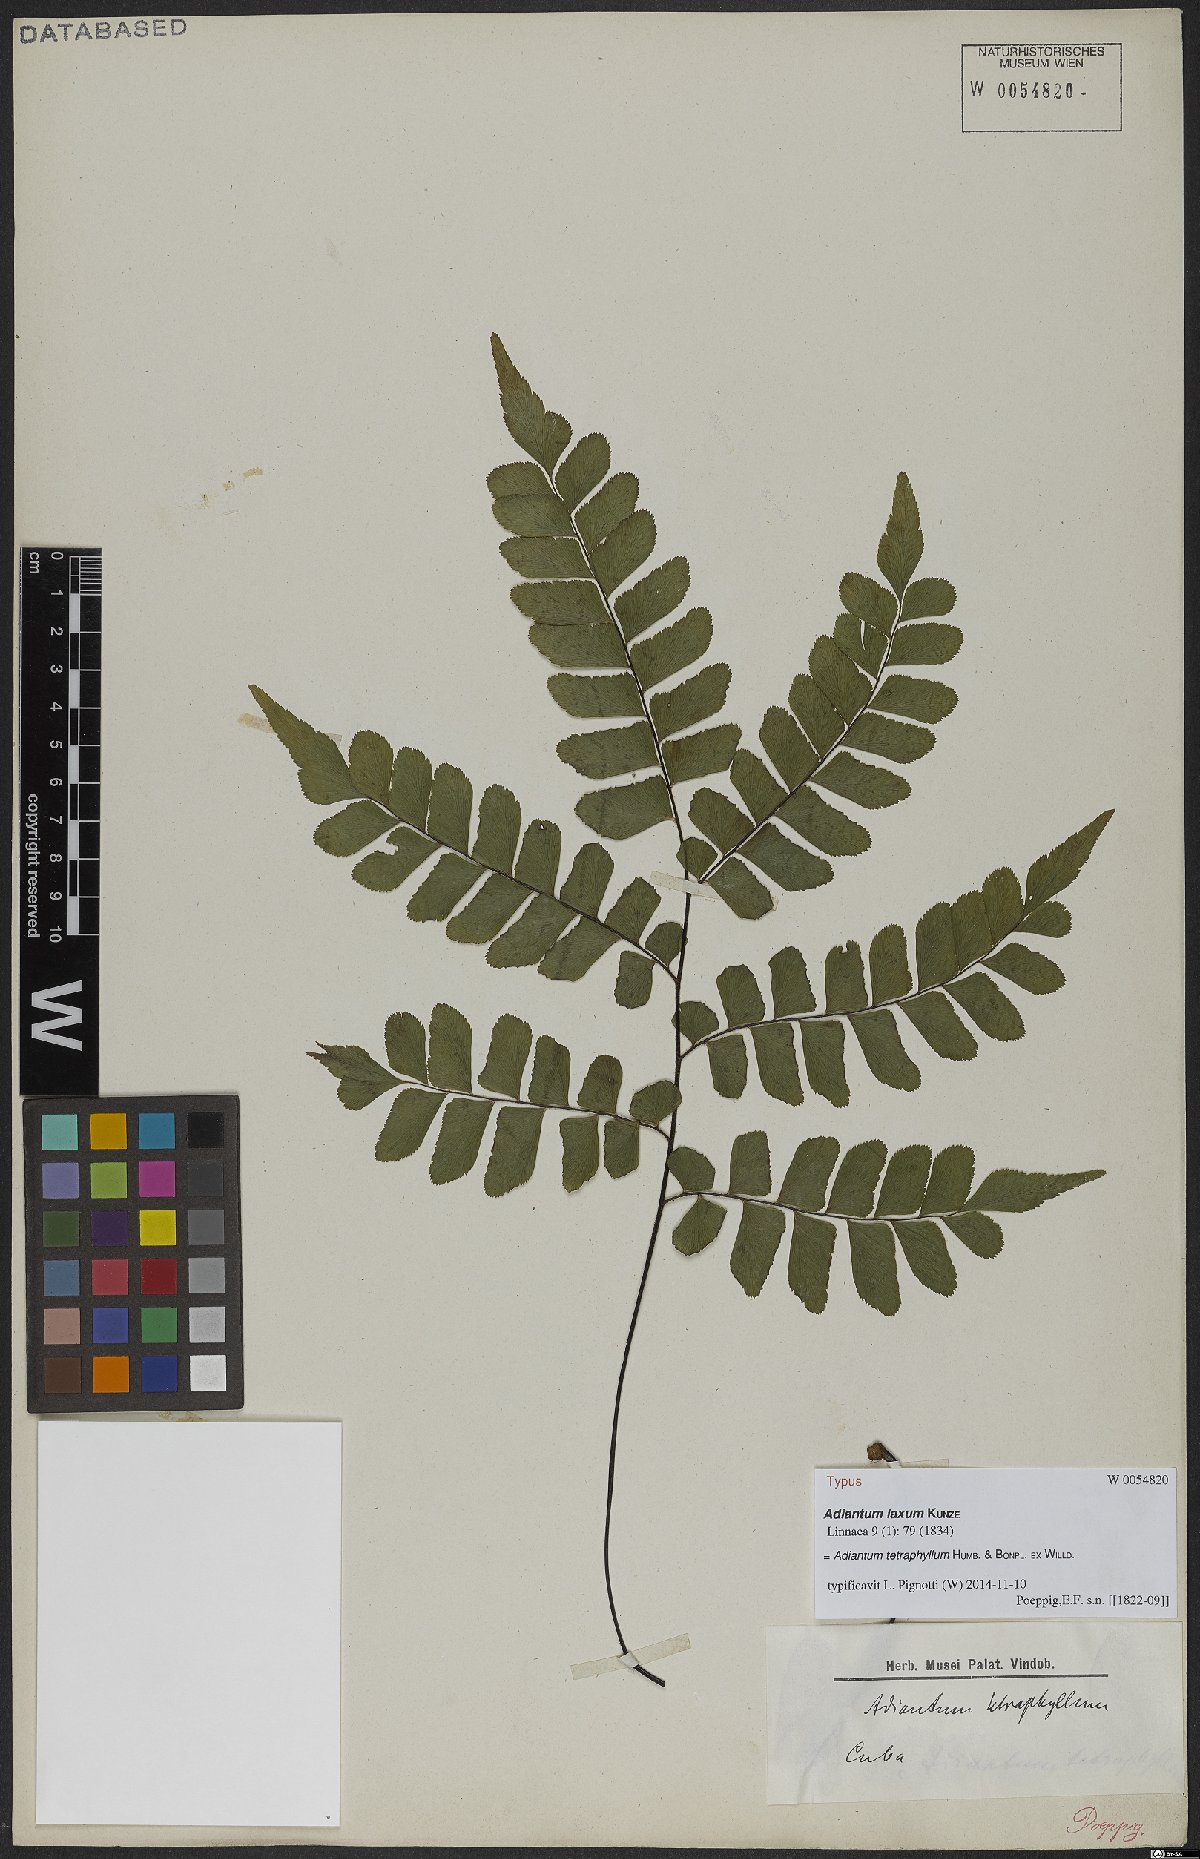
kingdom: Plantae
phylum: Tracheophyta
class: Polypodiopsida
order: Polypodiales
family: Pteridaceae
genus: Adiantum
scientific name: Adiantum tetraphyllum
